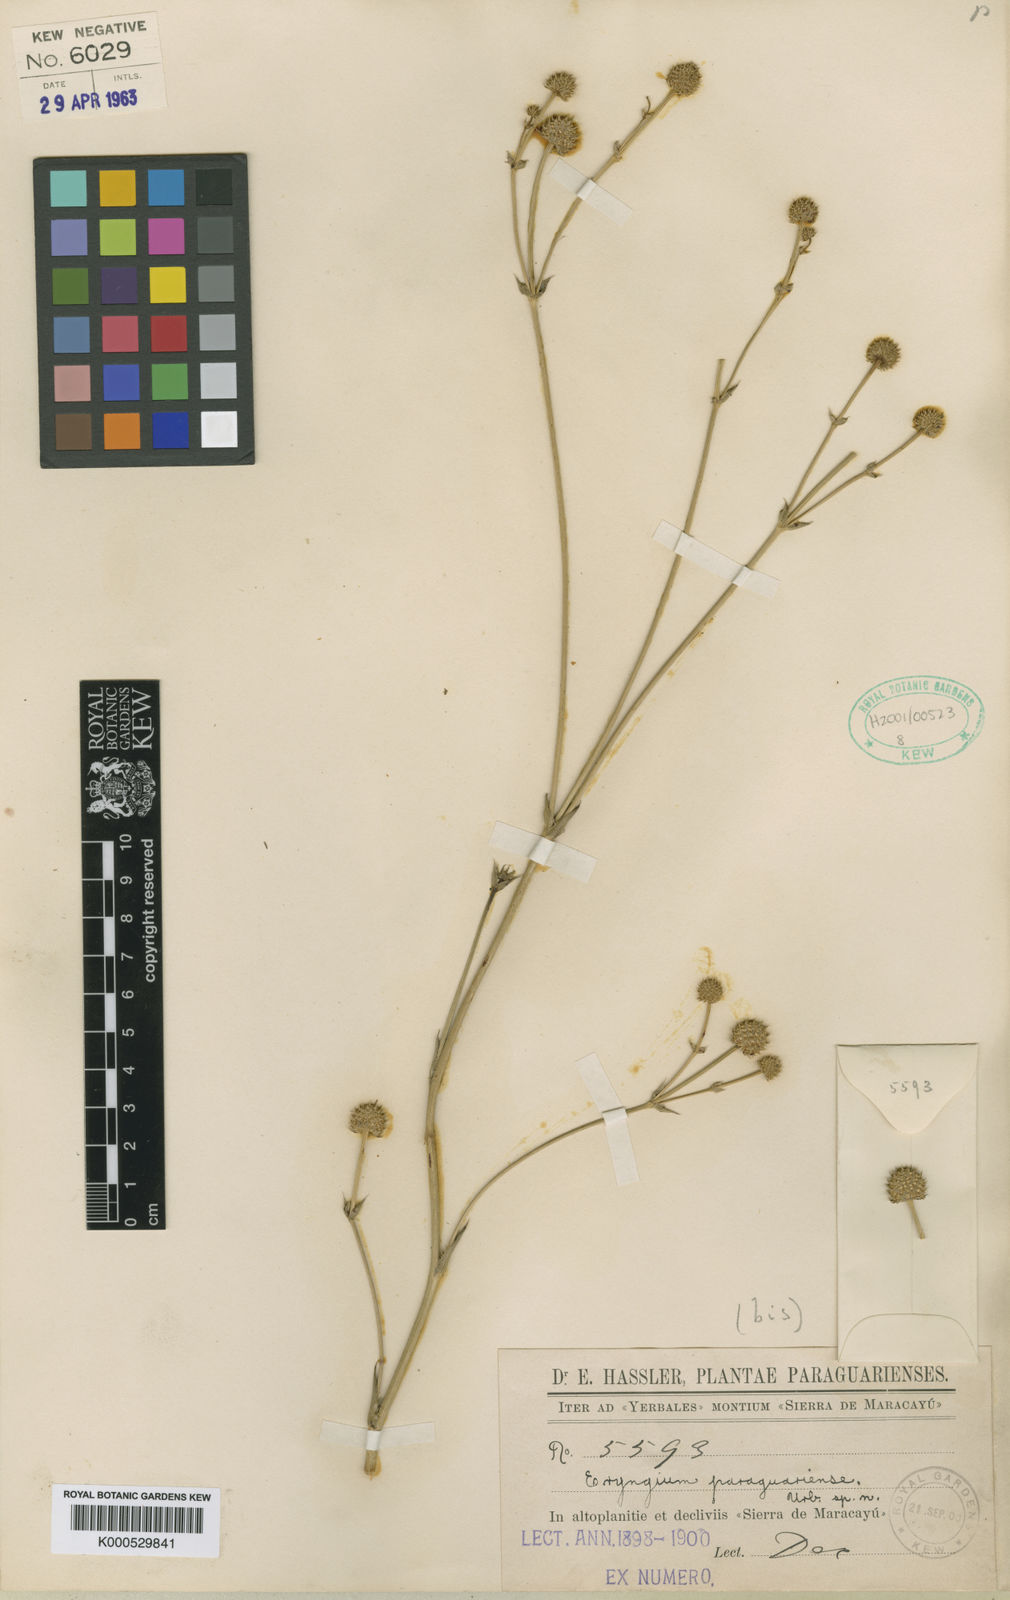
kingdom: Plantae
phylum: Tracheophyta
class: Magnoliopsida
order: Apiales
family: Apiaceae
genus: Eryngium
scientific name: Eryngium paraguariense
